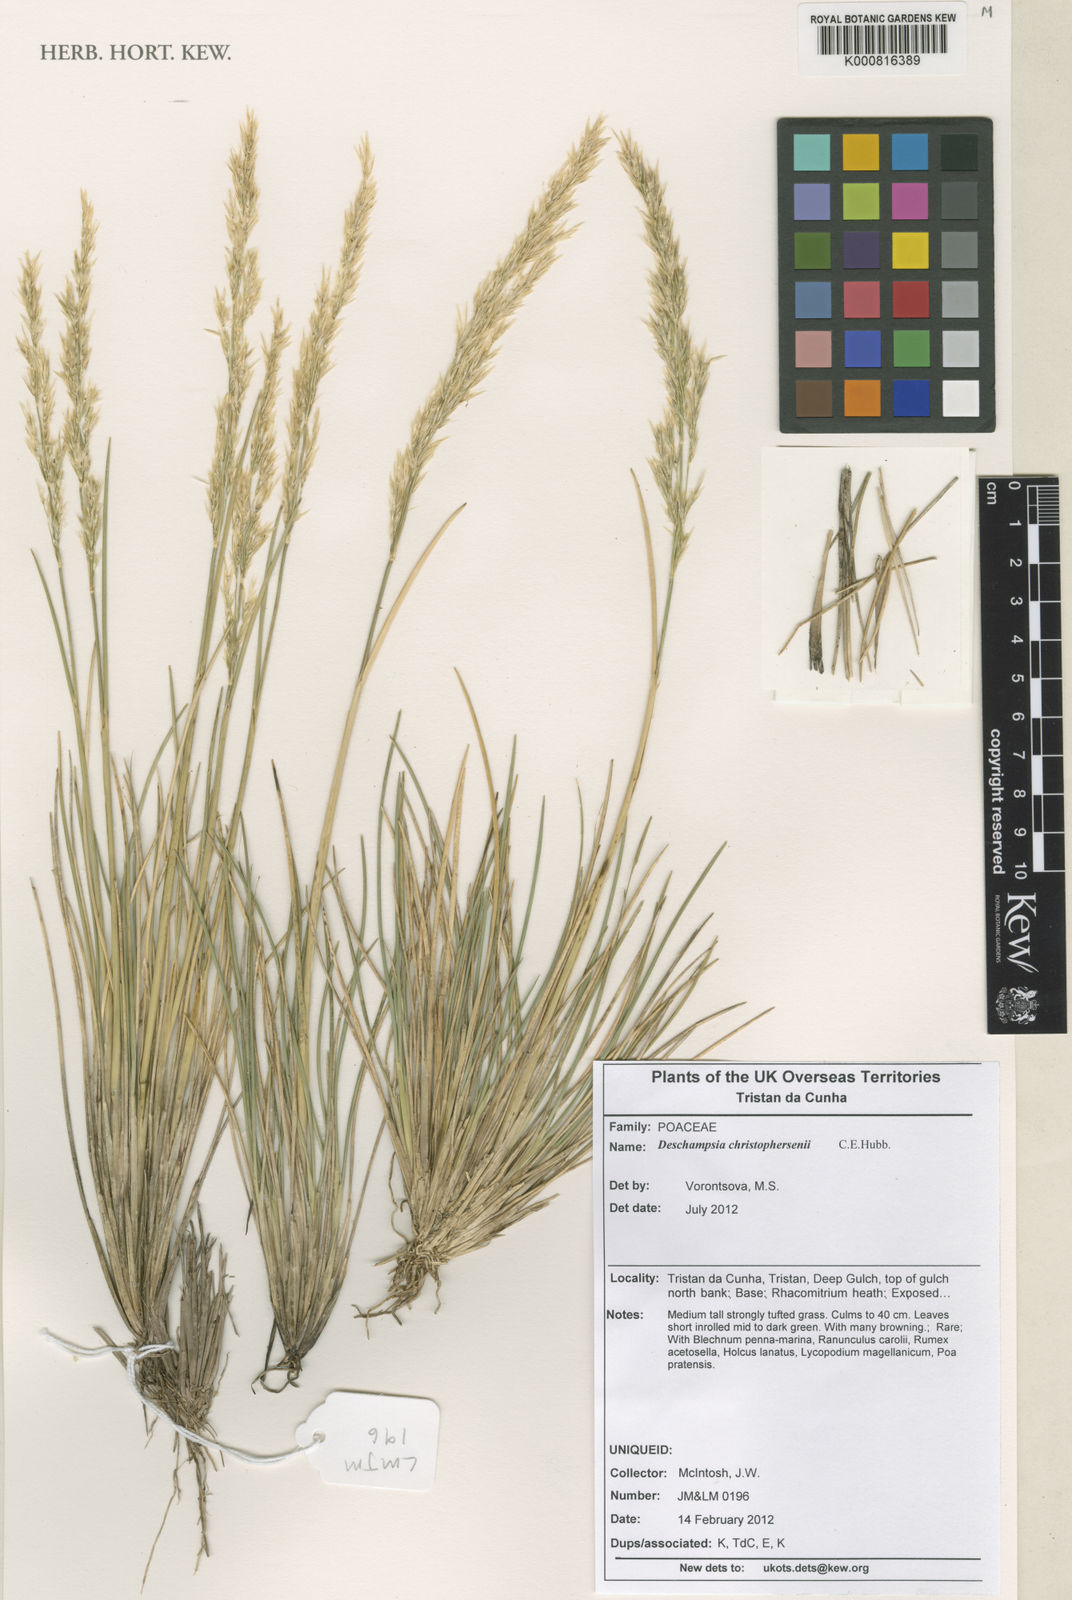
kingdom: Plantae
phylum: Tracheophyta
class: Liliopsida
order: Poales
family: Poaceae
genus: Deschampsia
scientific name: Deschampsia christophersenii
